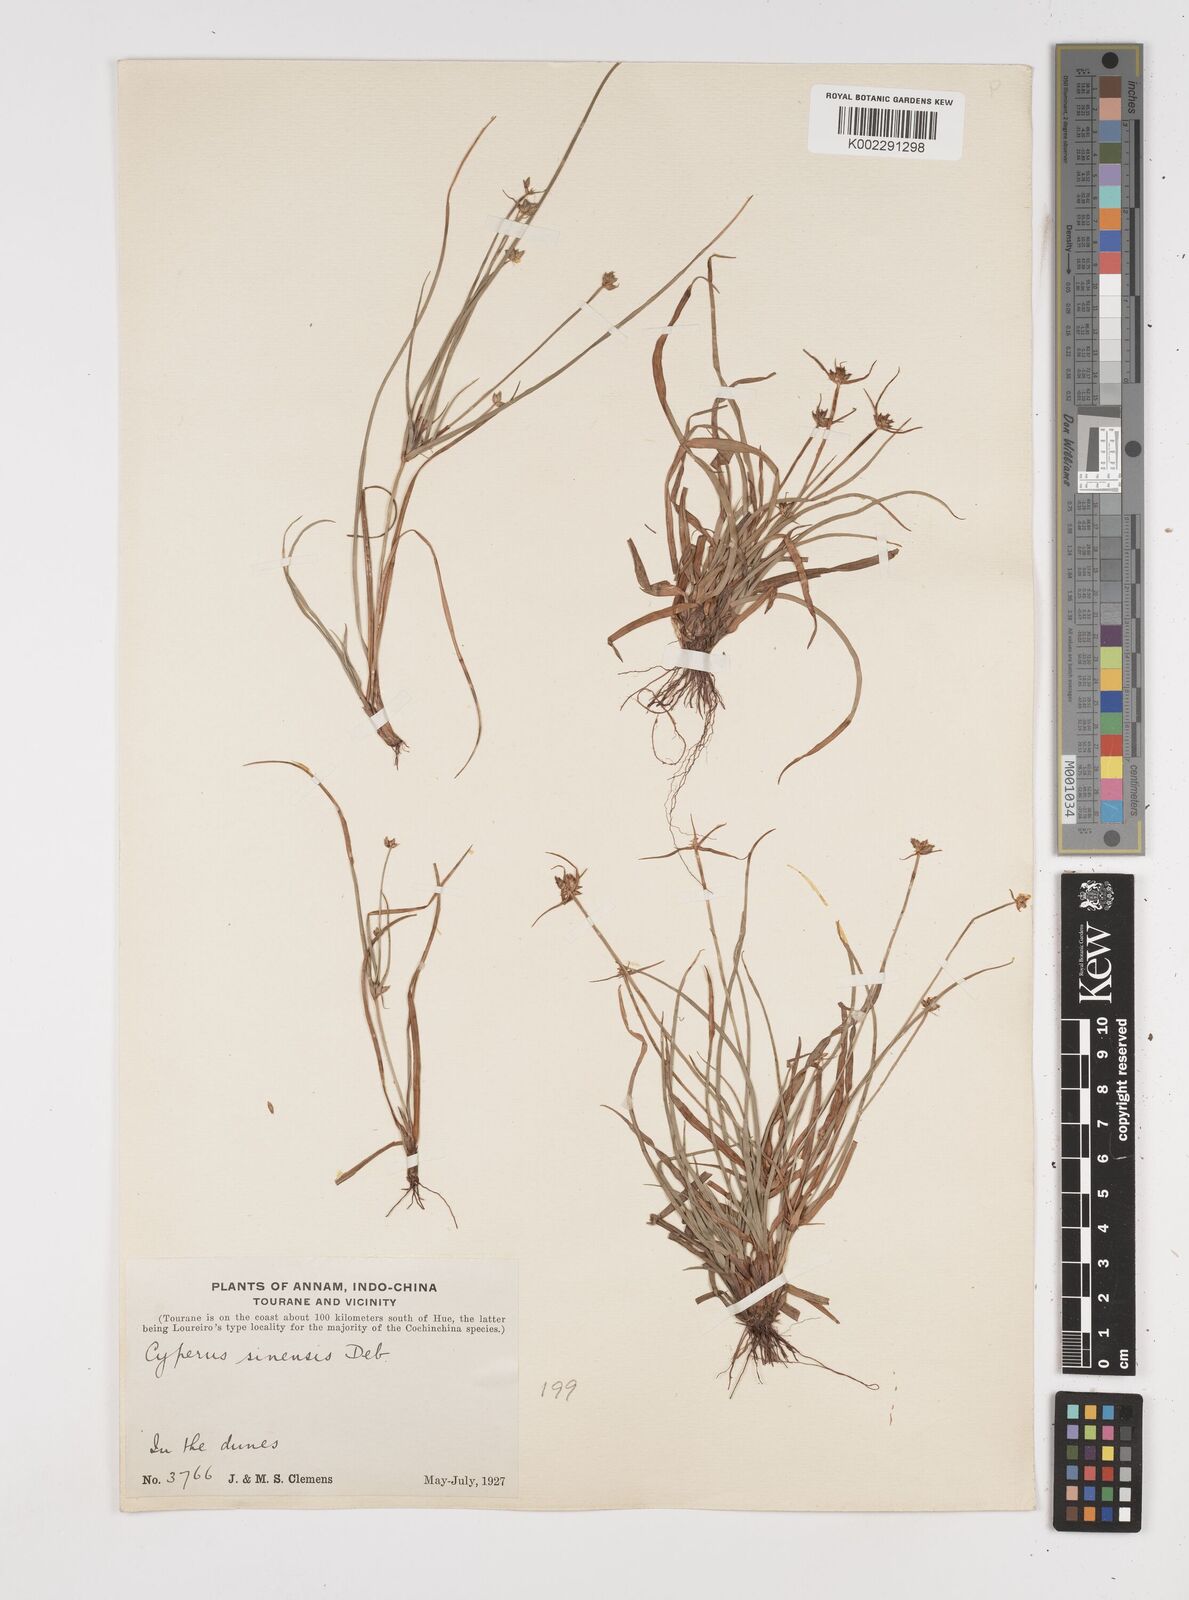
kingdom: Plantae
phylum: Tracheophyta
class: Liliopsida
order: Poales
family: Cyperaceae
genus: Cyperus
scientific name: Cyperus radians
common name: Short-stem cyperus
